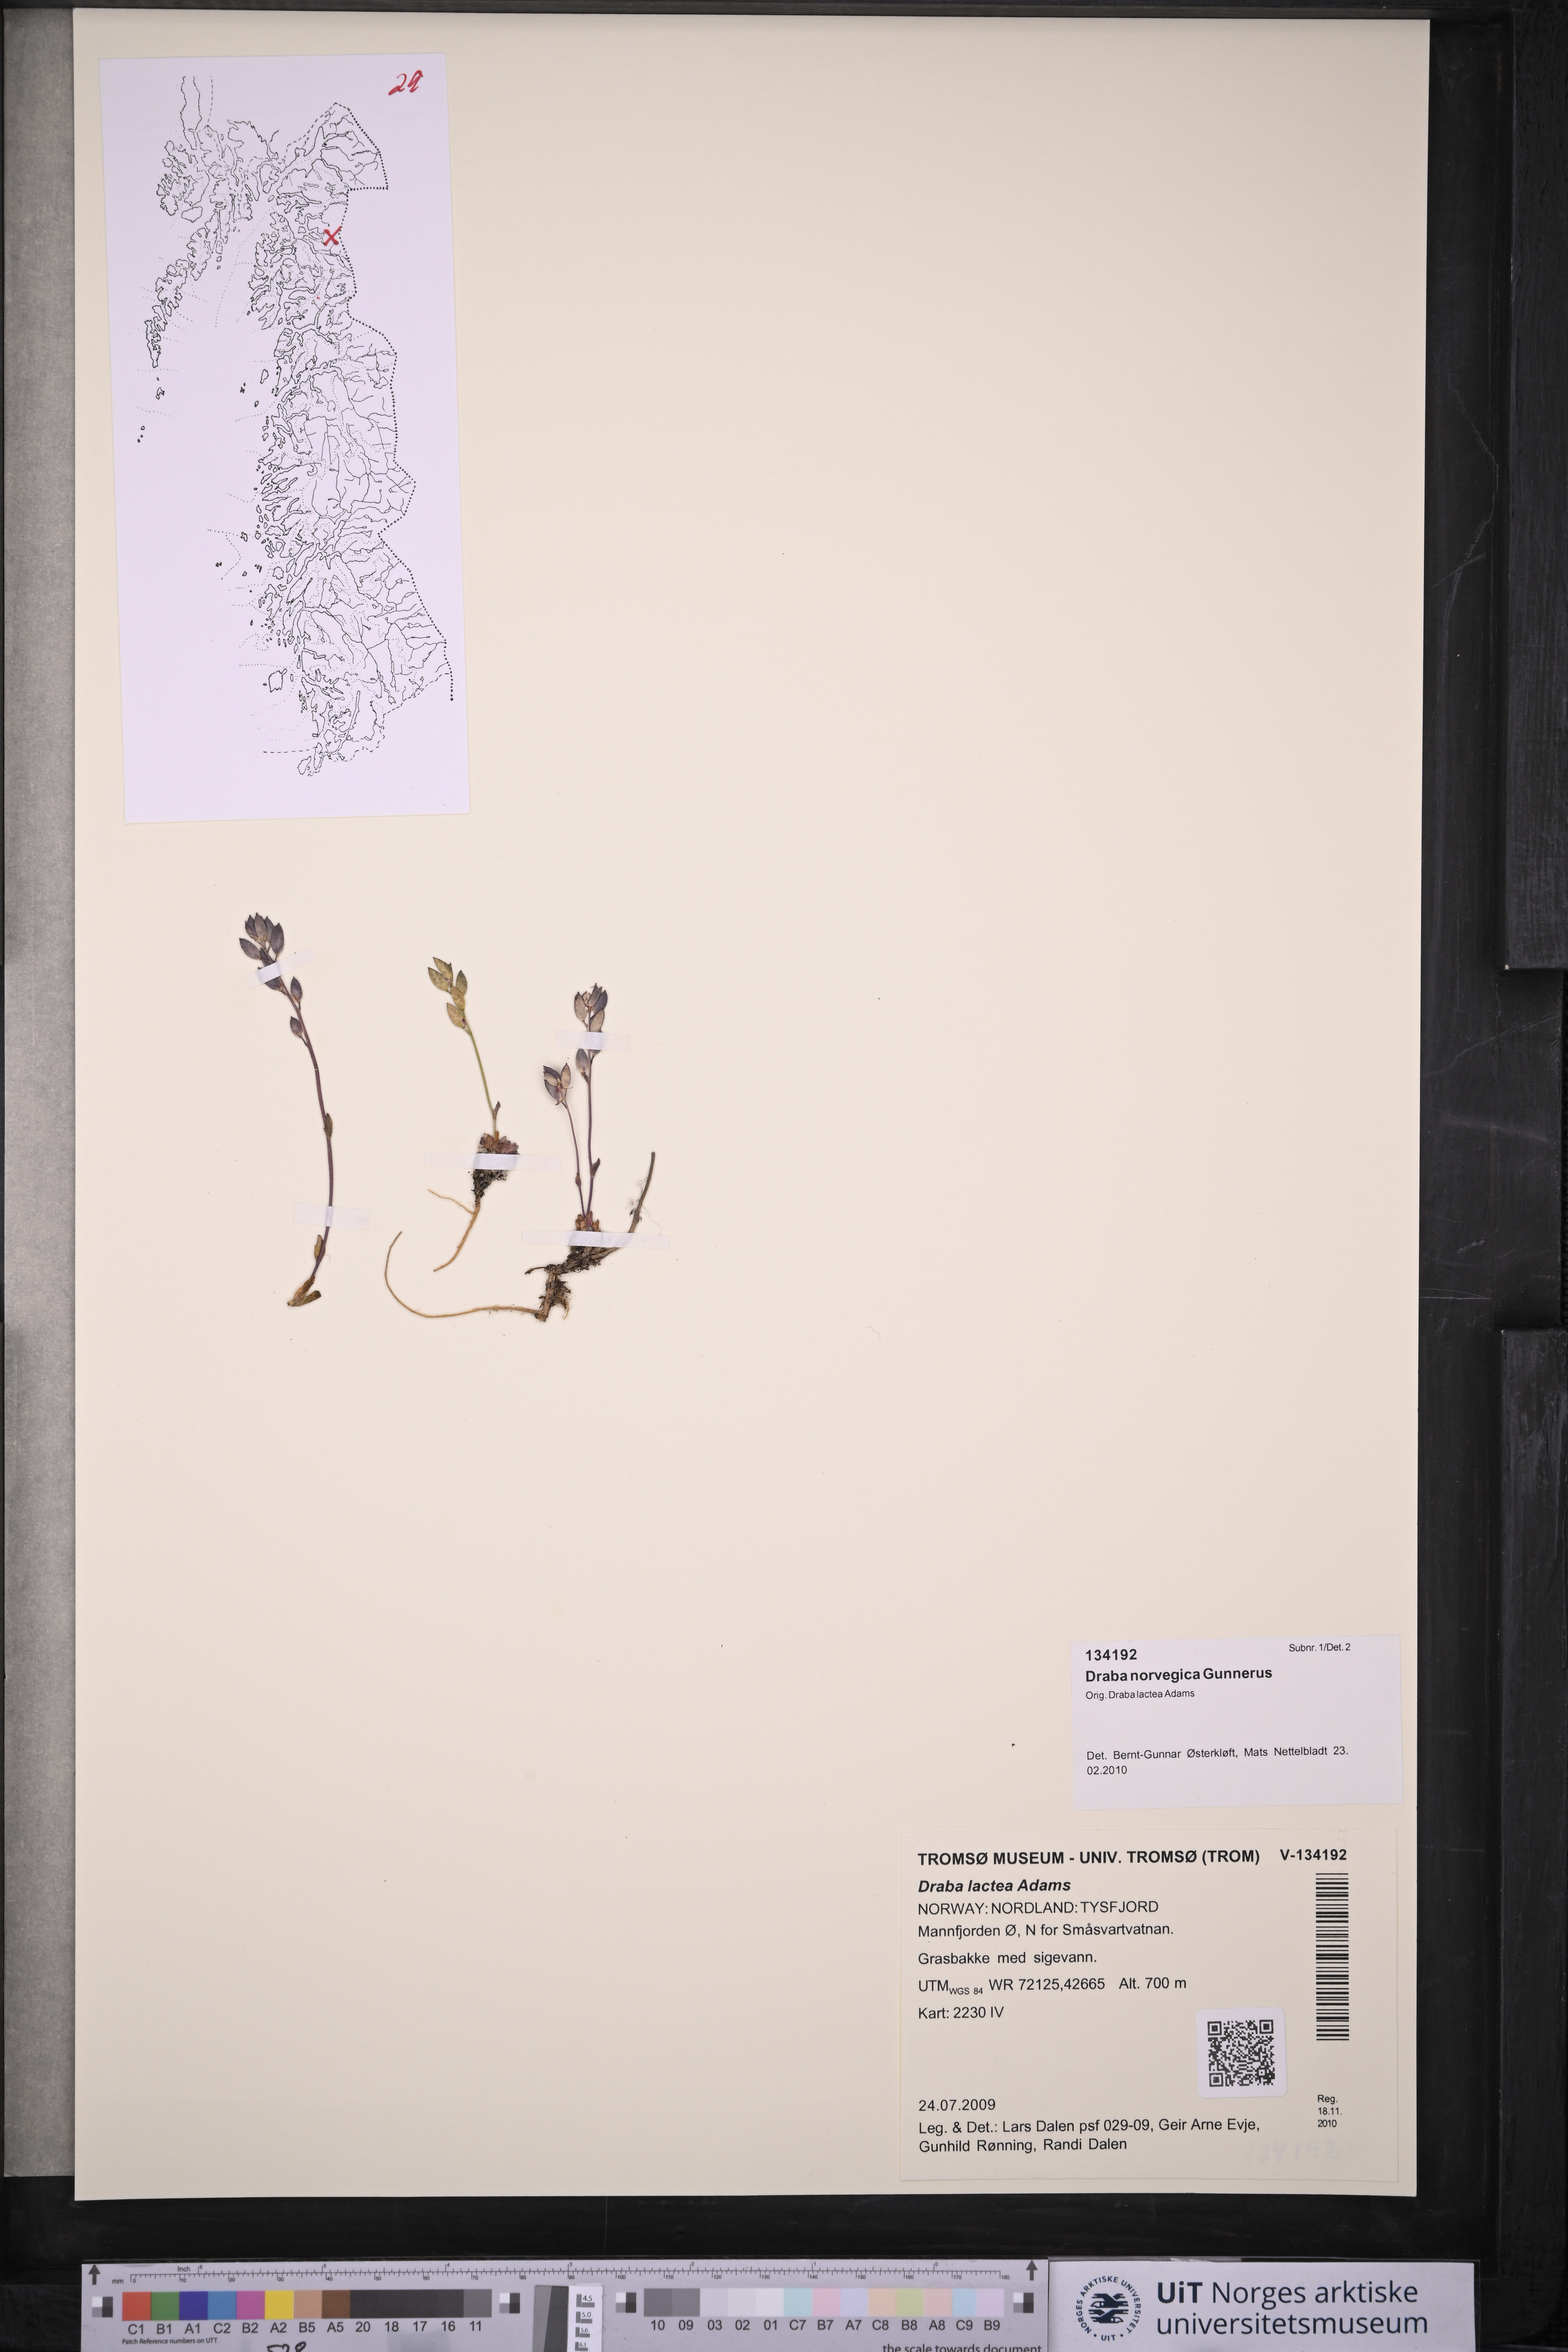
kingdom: Plantae
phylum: Tracheophyta
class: Magnoliopsida
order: Brassicales
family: Brassicaceae
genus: Draba
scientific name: Draba norvegica
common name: Rock whitlowgrass
